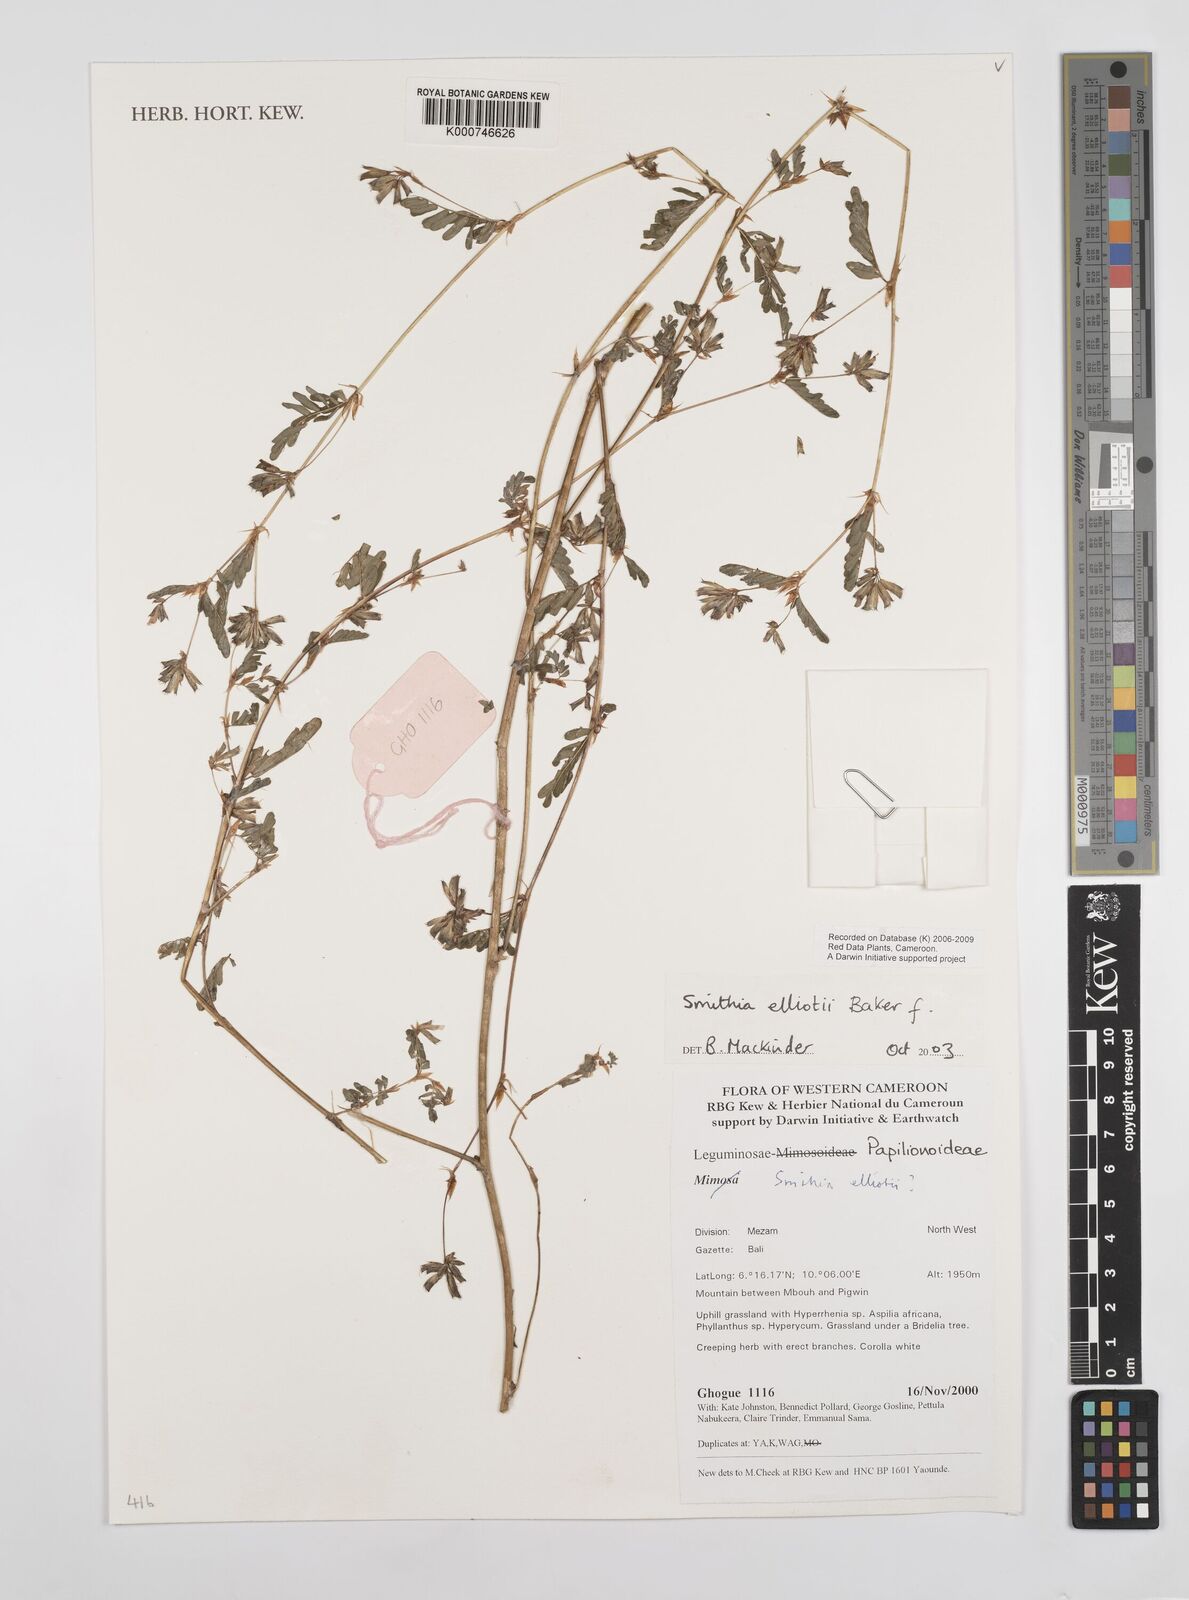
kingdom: Plantae
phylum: Tracheophyta
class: Magnoliopsida
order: Fabales
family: Fabaceae
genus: Smithia
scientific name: Smithia elliotii
